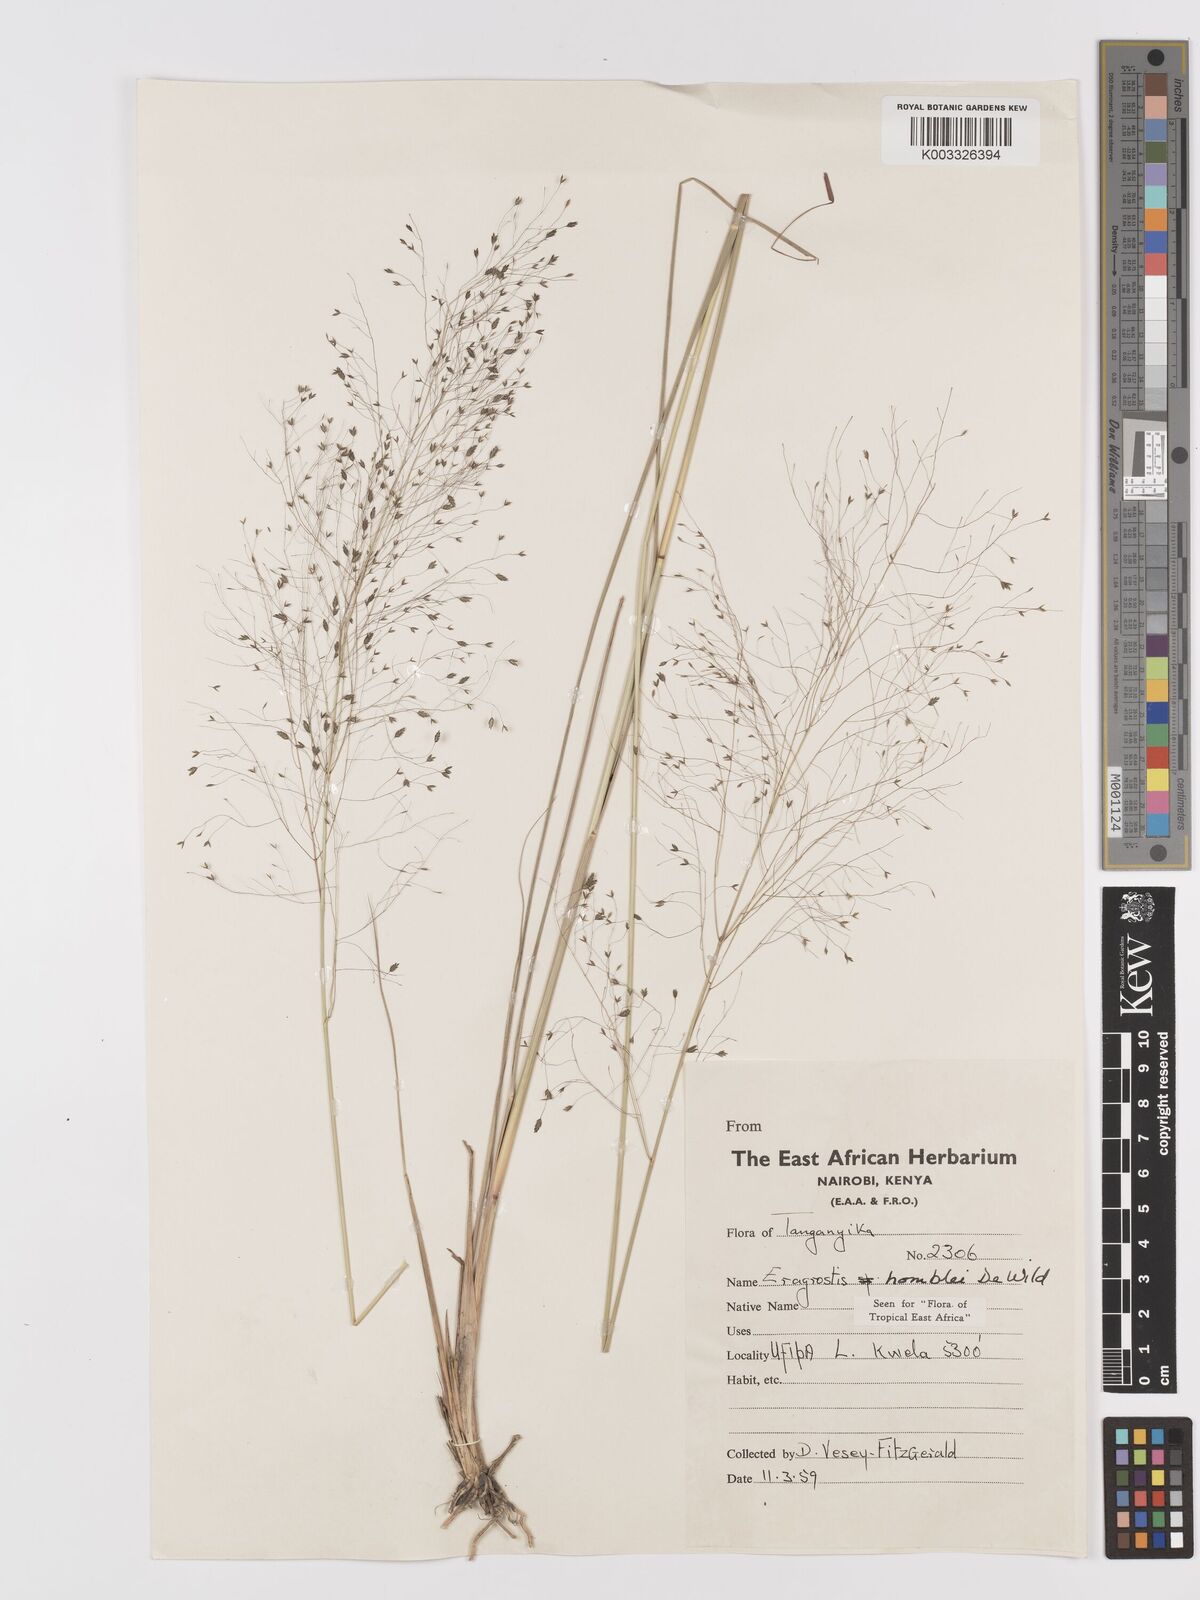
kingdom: Plantae
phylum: Tracheophyta
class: Liliopsida
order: Poales
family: Poaceae
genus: Eragrostis
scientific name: Eragrostis homblei
